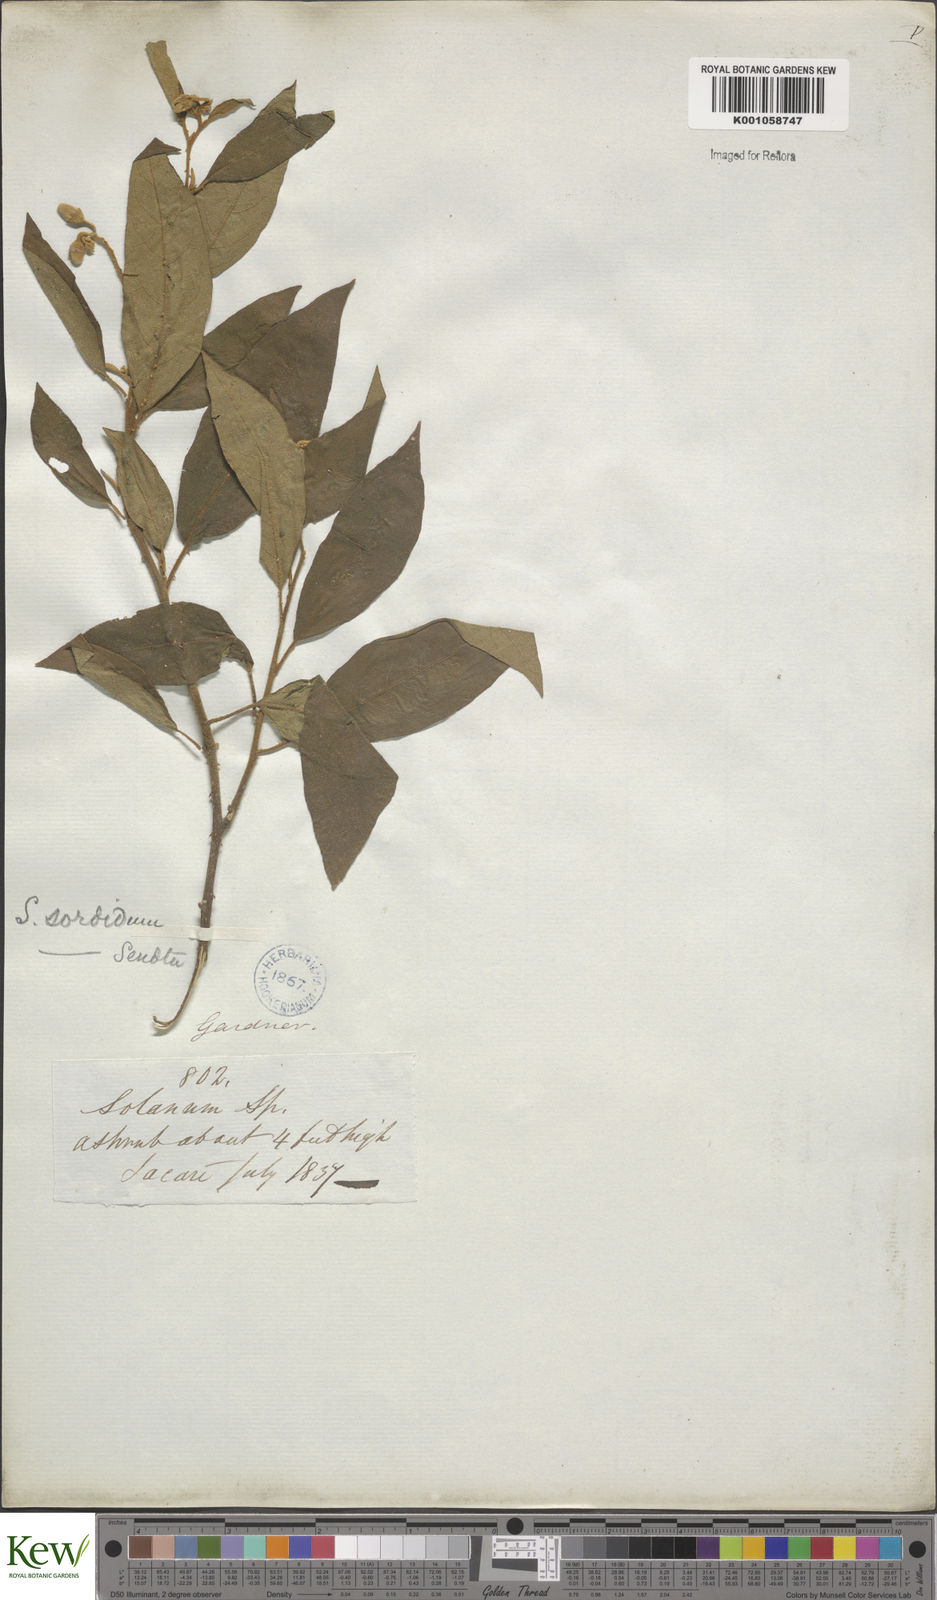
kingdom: Plantae
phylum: Tracheophyta
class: Magnoliopsida
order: Solanales
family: Solanaceae
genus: Solanum
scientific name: Solanum subumbellatum
